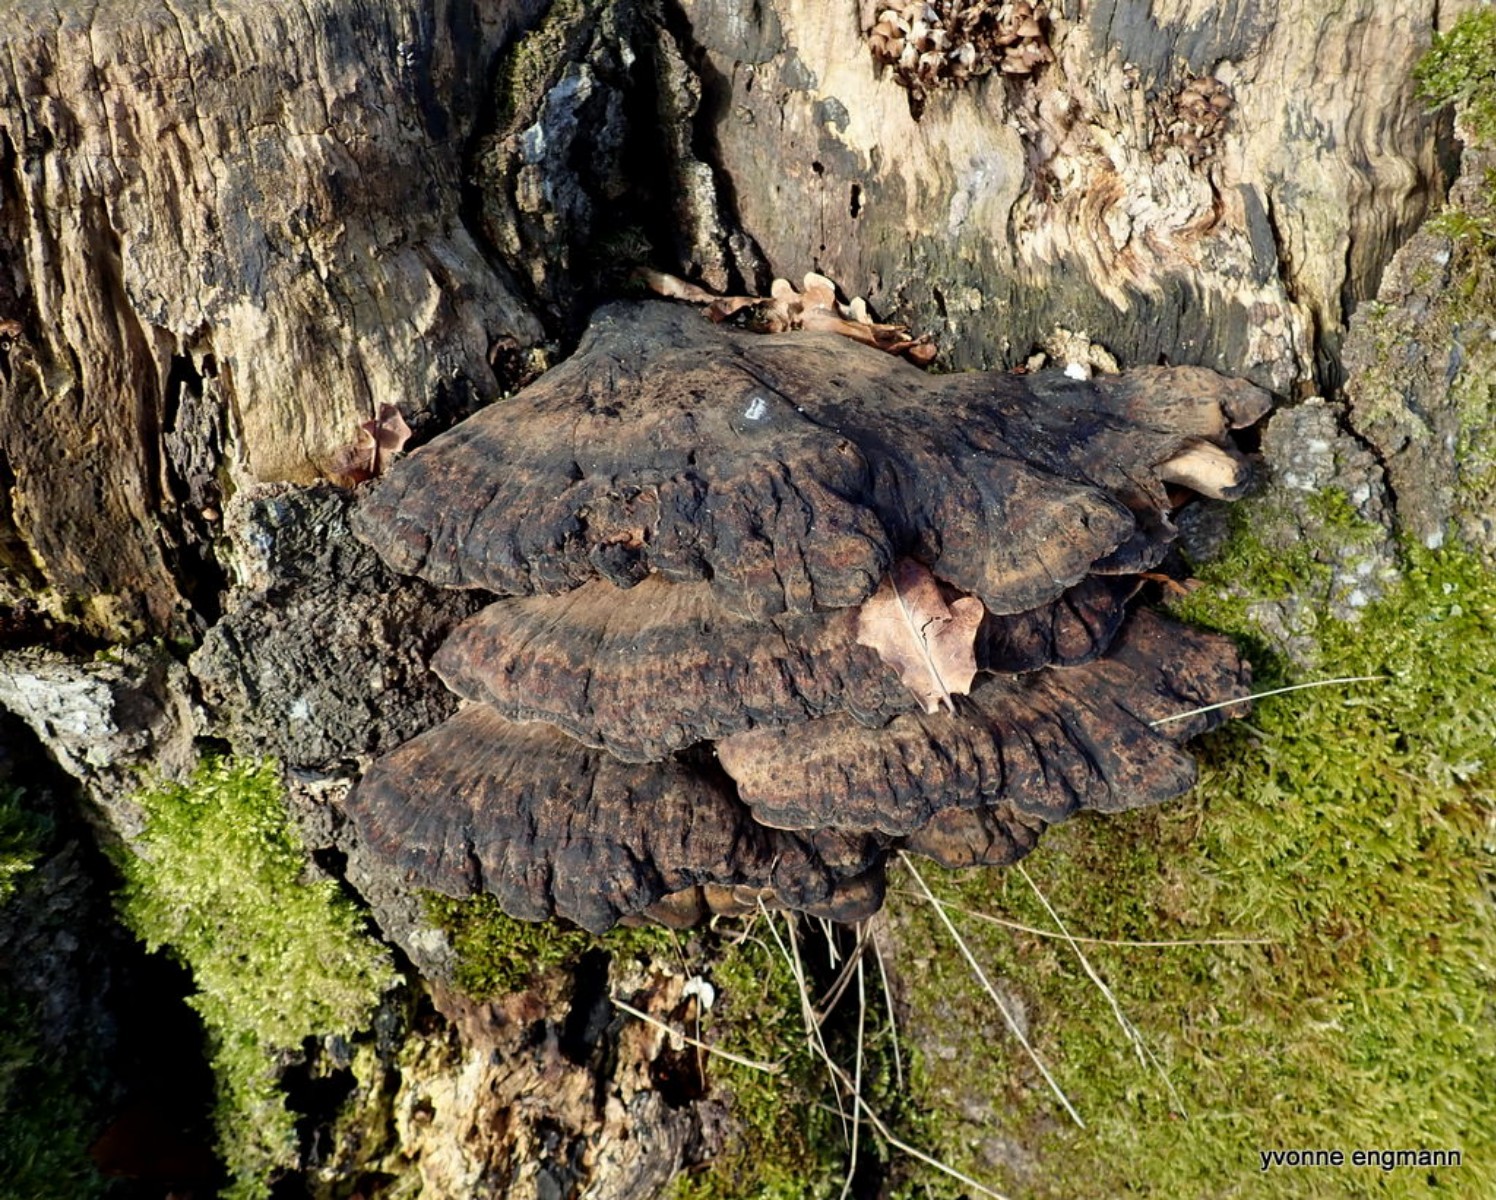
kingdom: Fungi
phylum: Basidiomycota
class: Agaricomycetes
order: Polyporales
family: Ischnodermataceae
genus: Ischnoderma
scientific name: Ischnoderma resinosum
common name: løv-tjæreporesvamp
